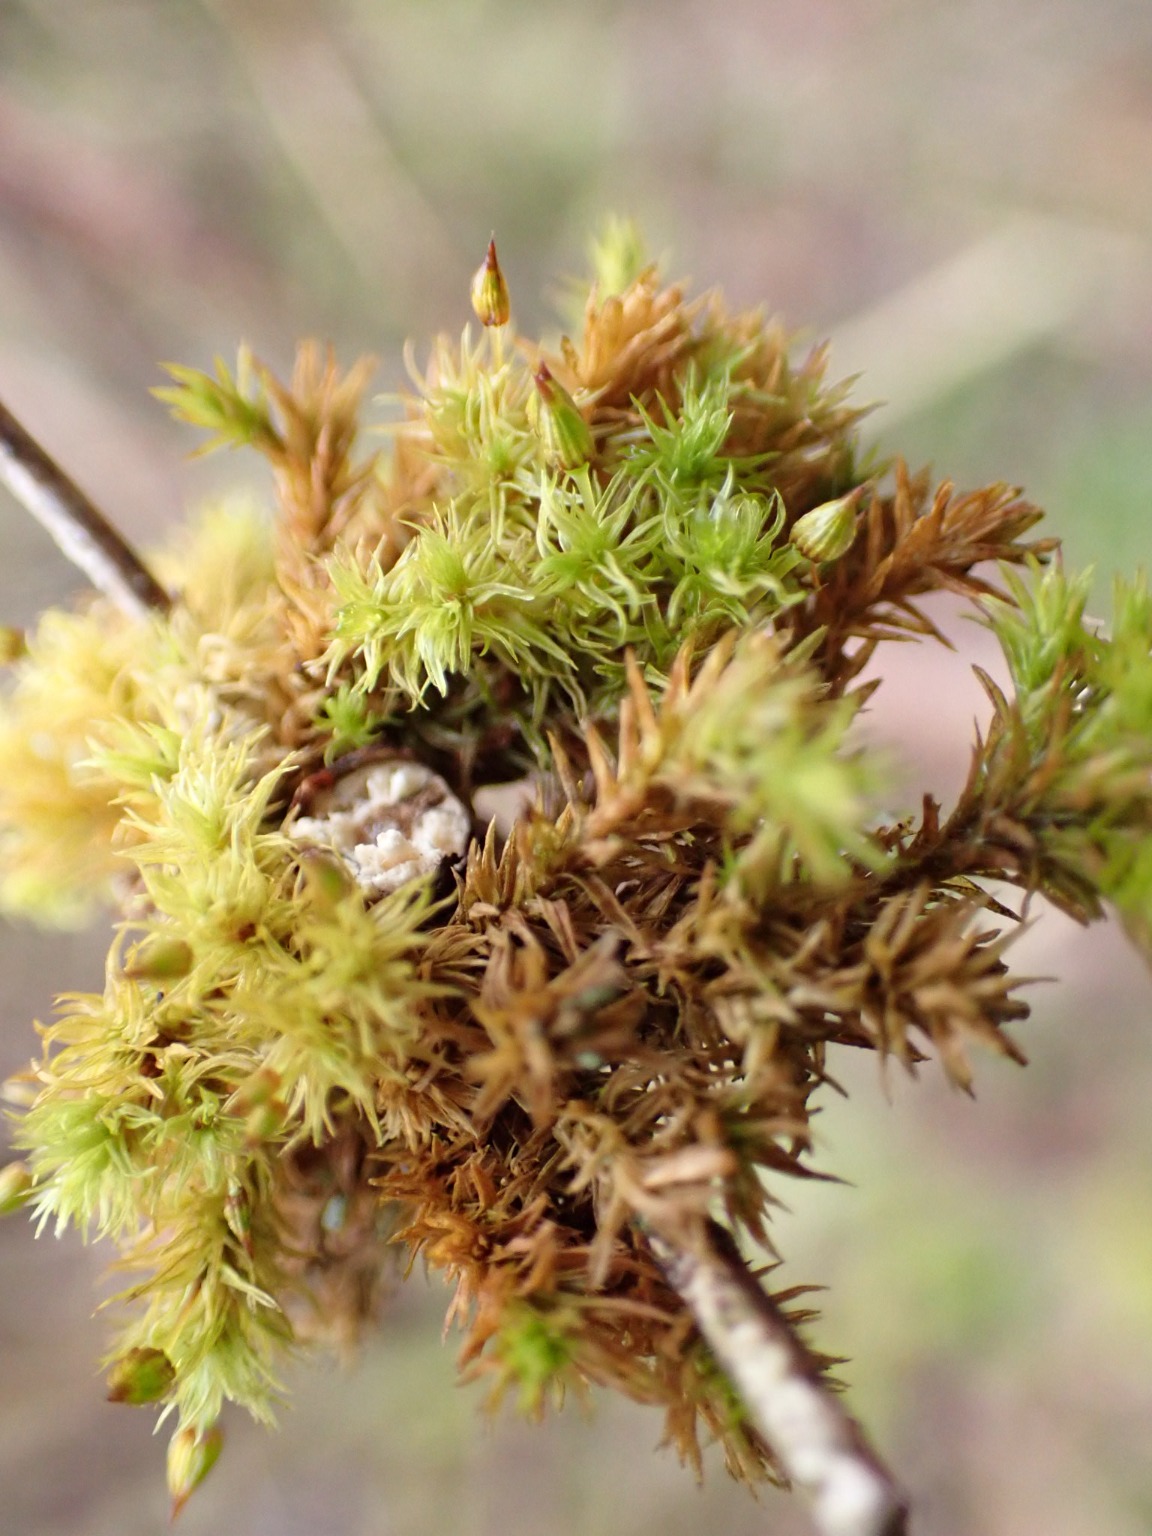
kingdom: Plantae
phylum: Bryophyta
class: Bryopsida
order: Orthotrichales
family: Orthotrichaceae
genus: Orthotrichum
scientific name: Orthotrichum pulchellum
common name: Smuk furehætte
